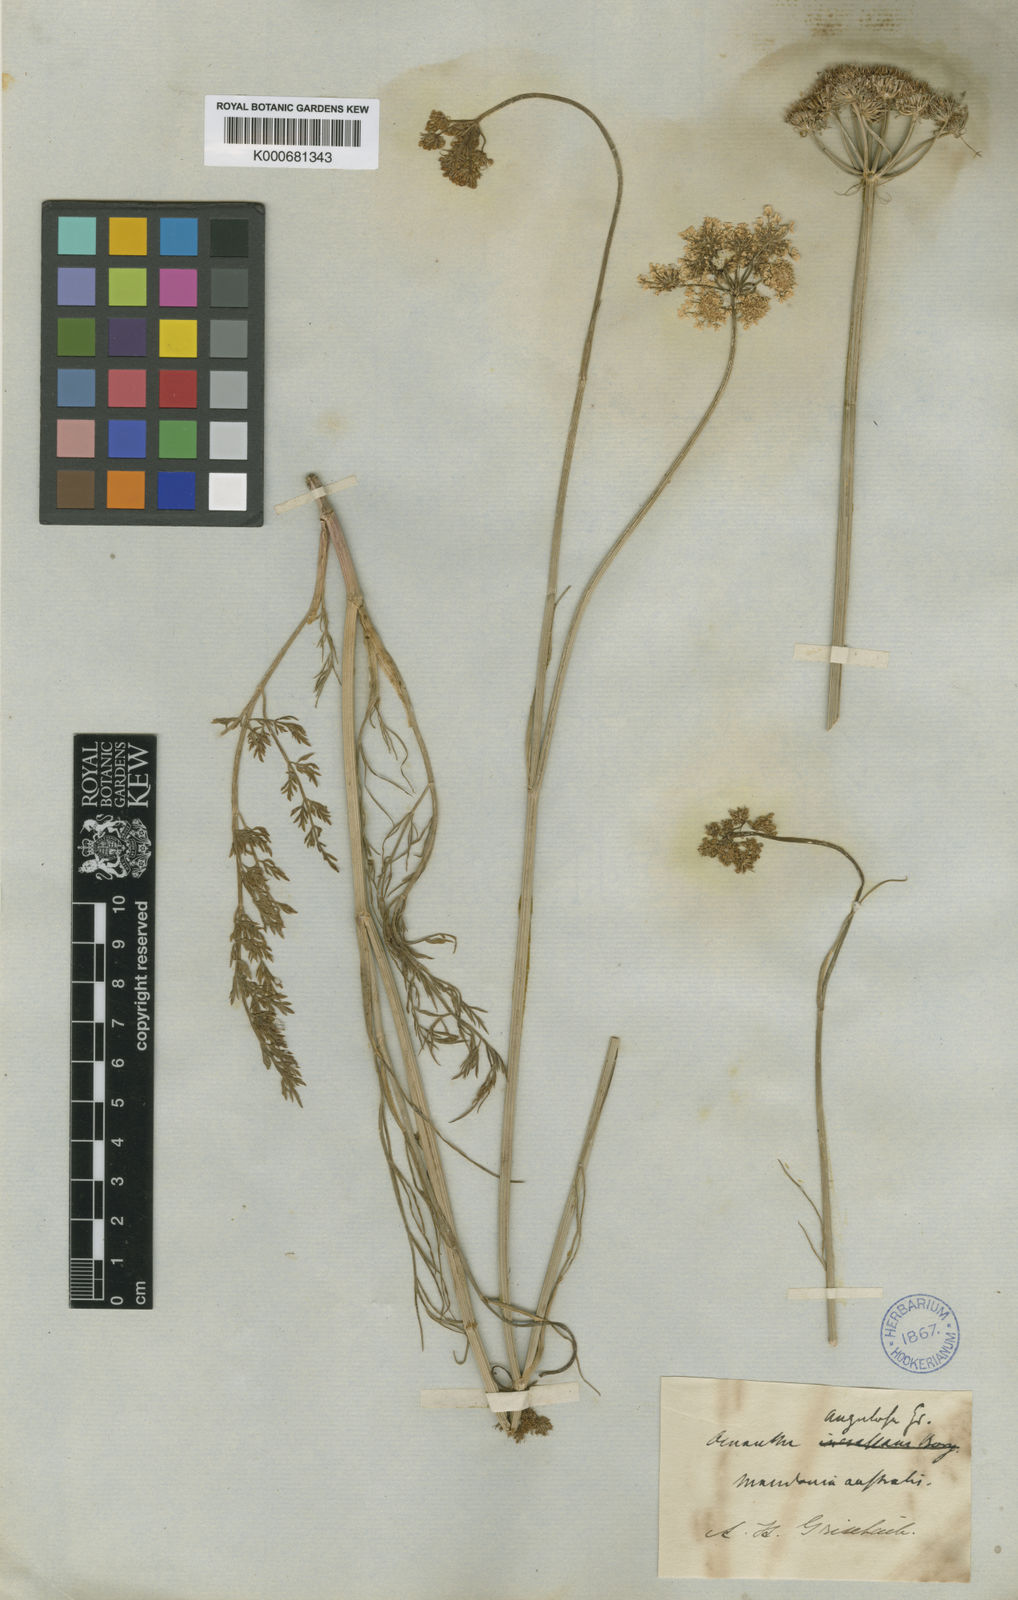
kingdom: Plantae
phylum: Tracheophyta
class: Magnoliopsida
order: Apiales
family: Apiaceae
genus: Oenanthe
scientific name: Oenanthe pimpinelloides
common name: Corky-fruited water-dropwort
